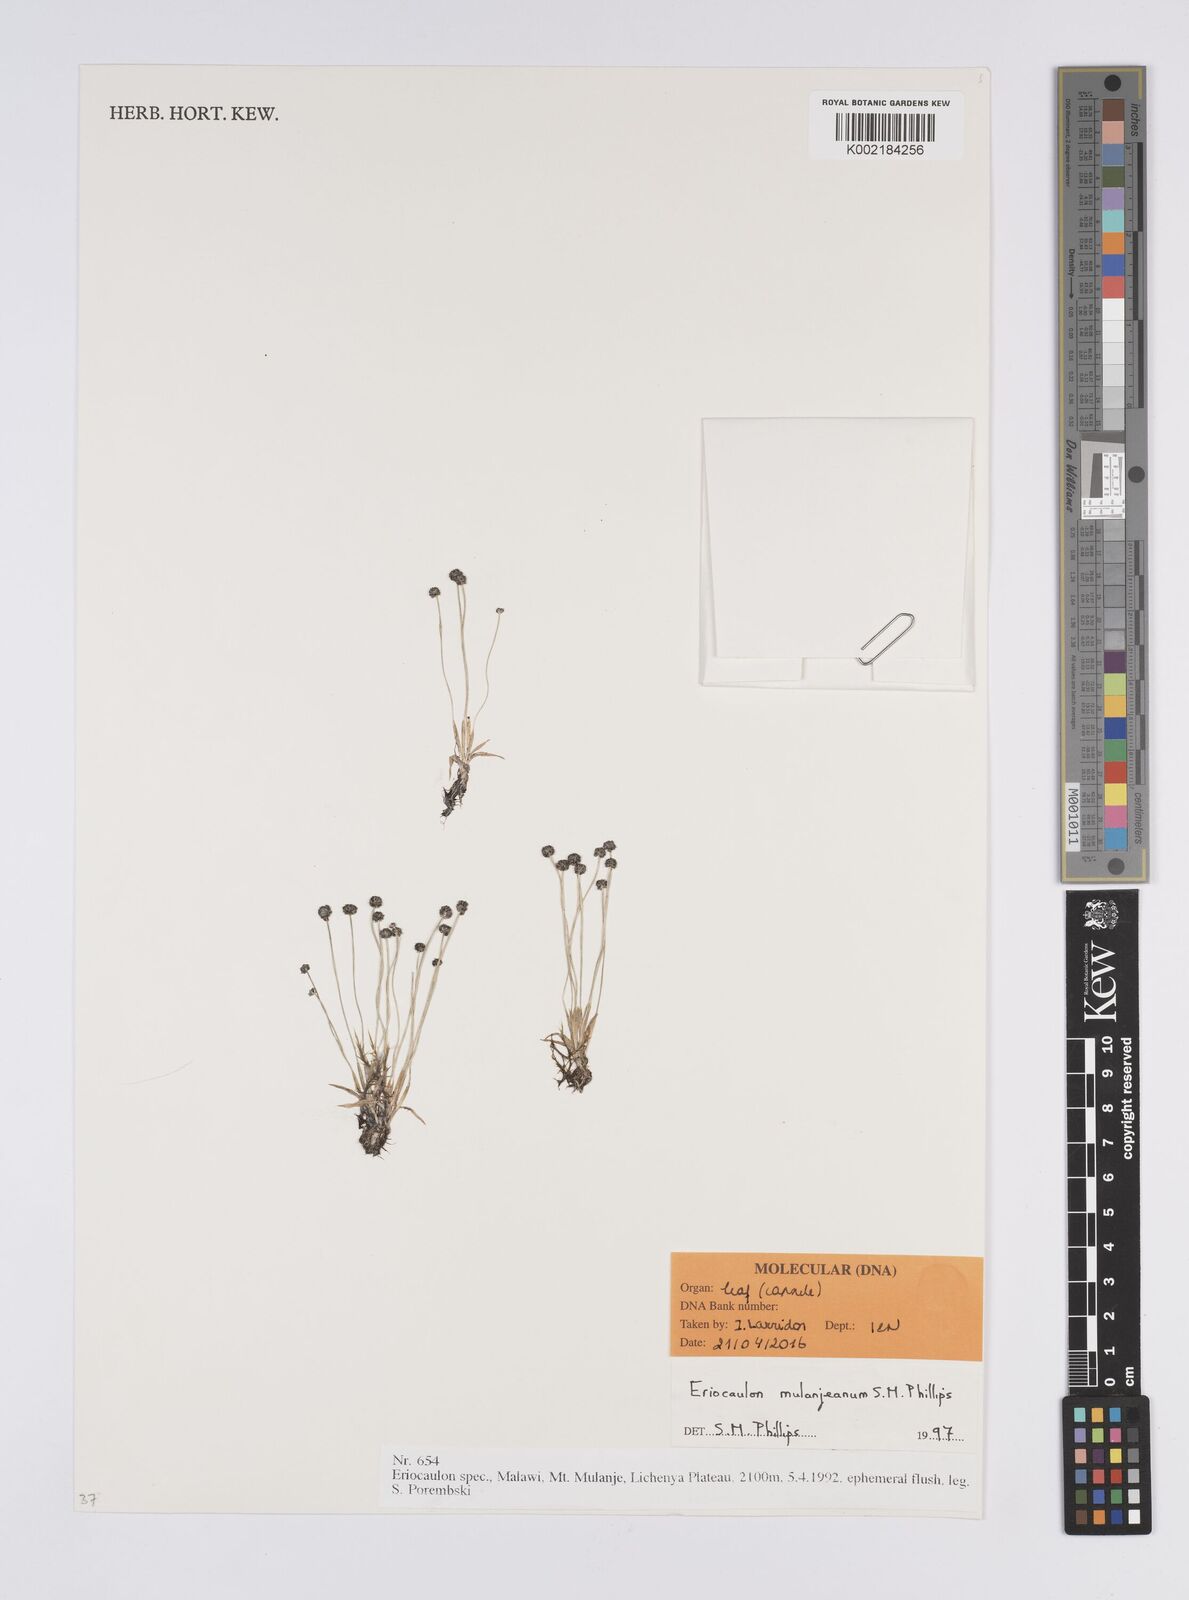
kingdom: Plantae
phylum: Tracheophyta
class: Liliopsida
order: Poales
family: Eriocaulaceae
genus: Eriocaulon
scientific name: Eriocaulon mulanjeanum
